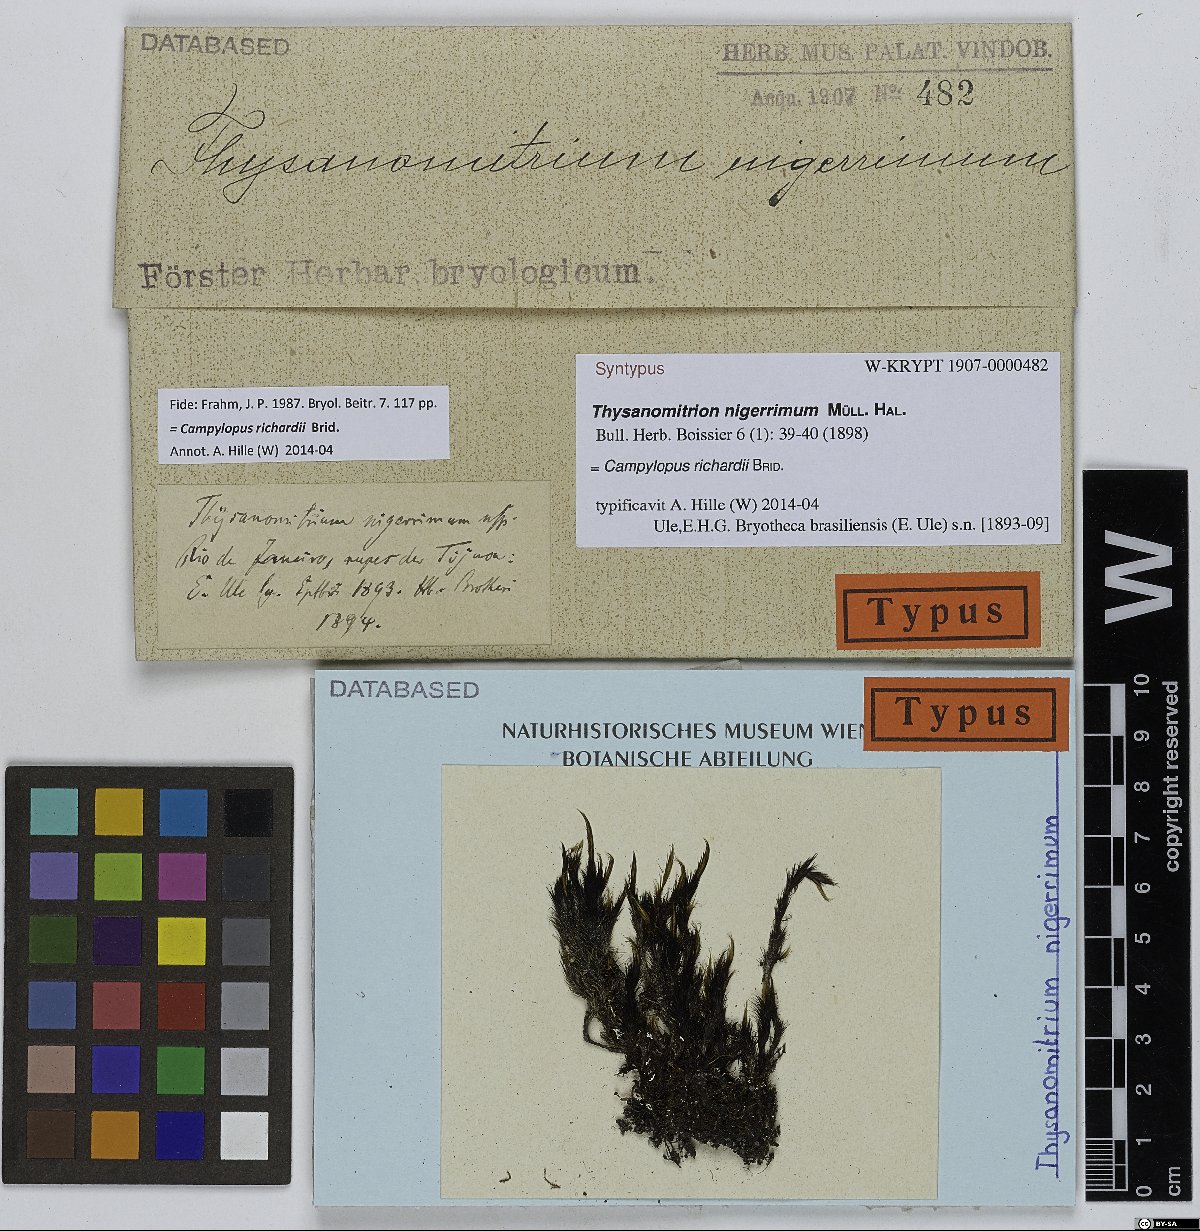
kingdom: Plantae
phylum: Bryophyta
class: Bryopsida
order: Dicranales
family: Leucobryaceae
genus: Campylopus
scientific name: Campylopus richardii
